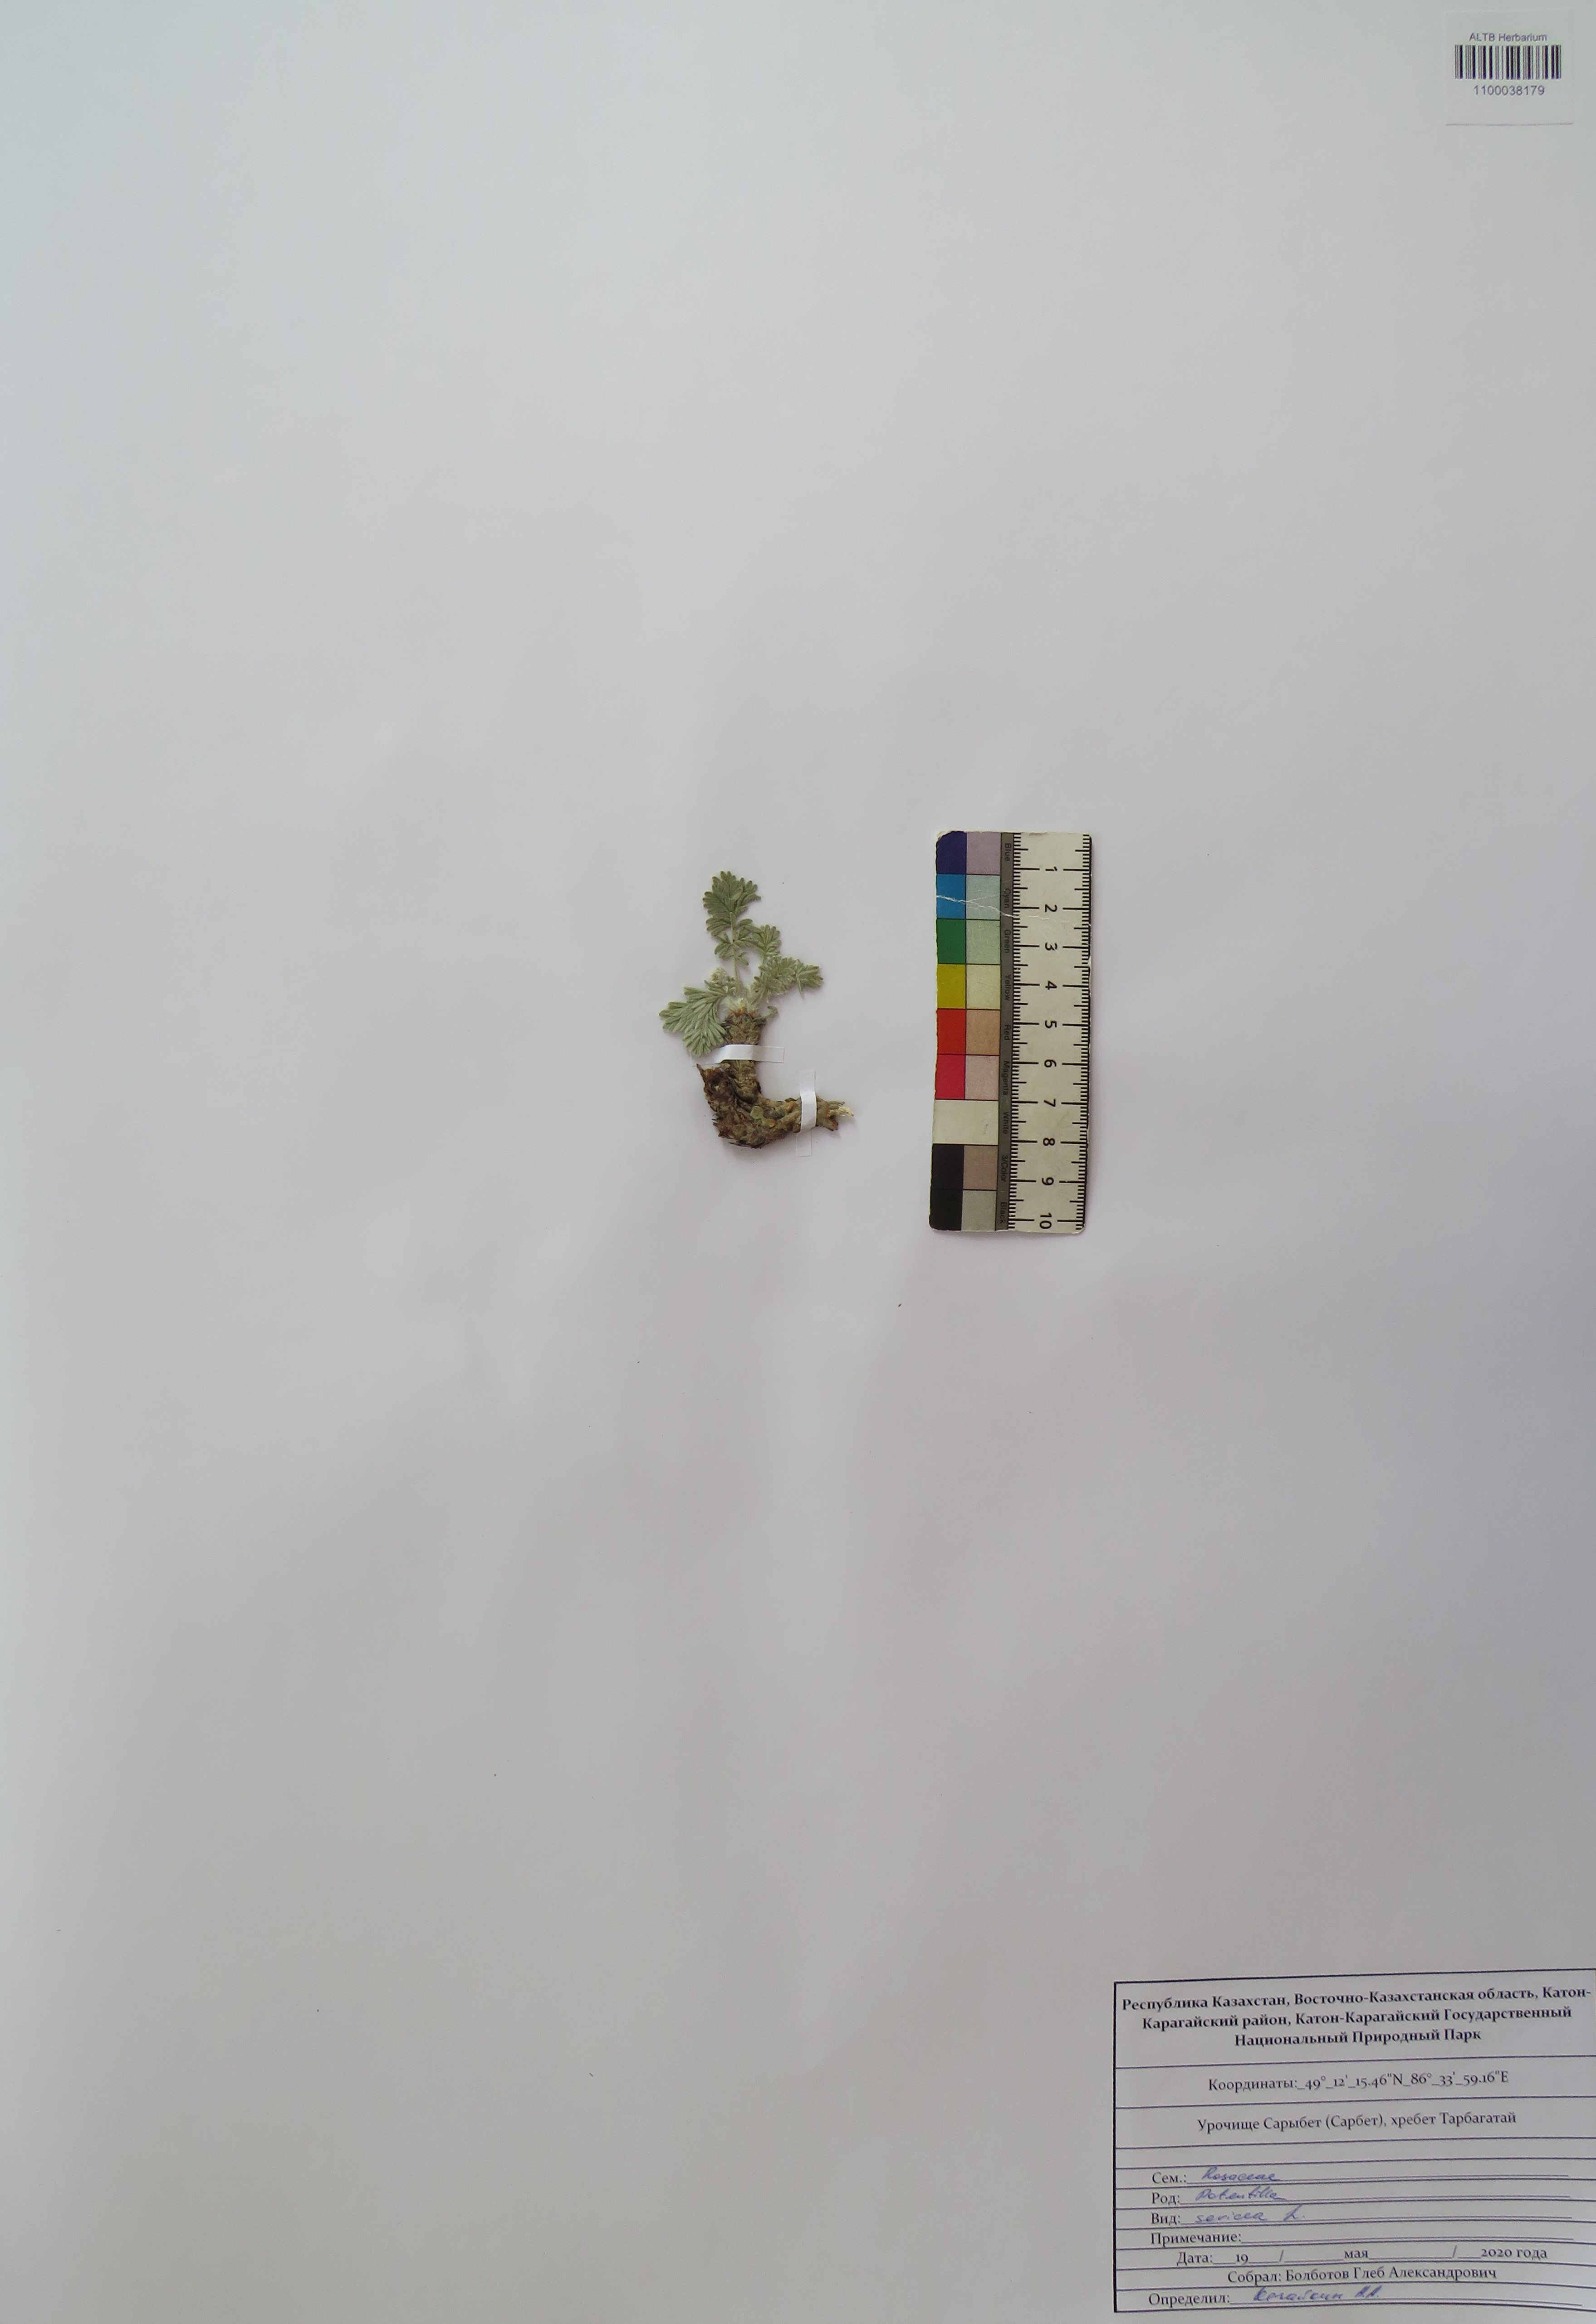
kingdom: Plantae
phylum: Tracheophyta
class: Magnoliopsida
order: Rosales
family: Rosaceae
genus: Potentilla
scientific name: Potentilla sericea
